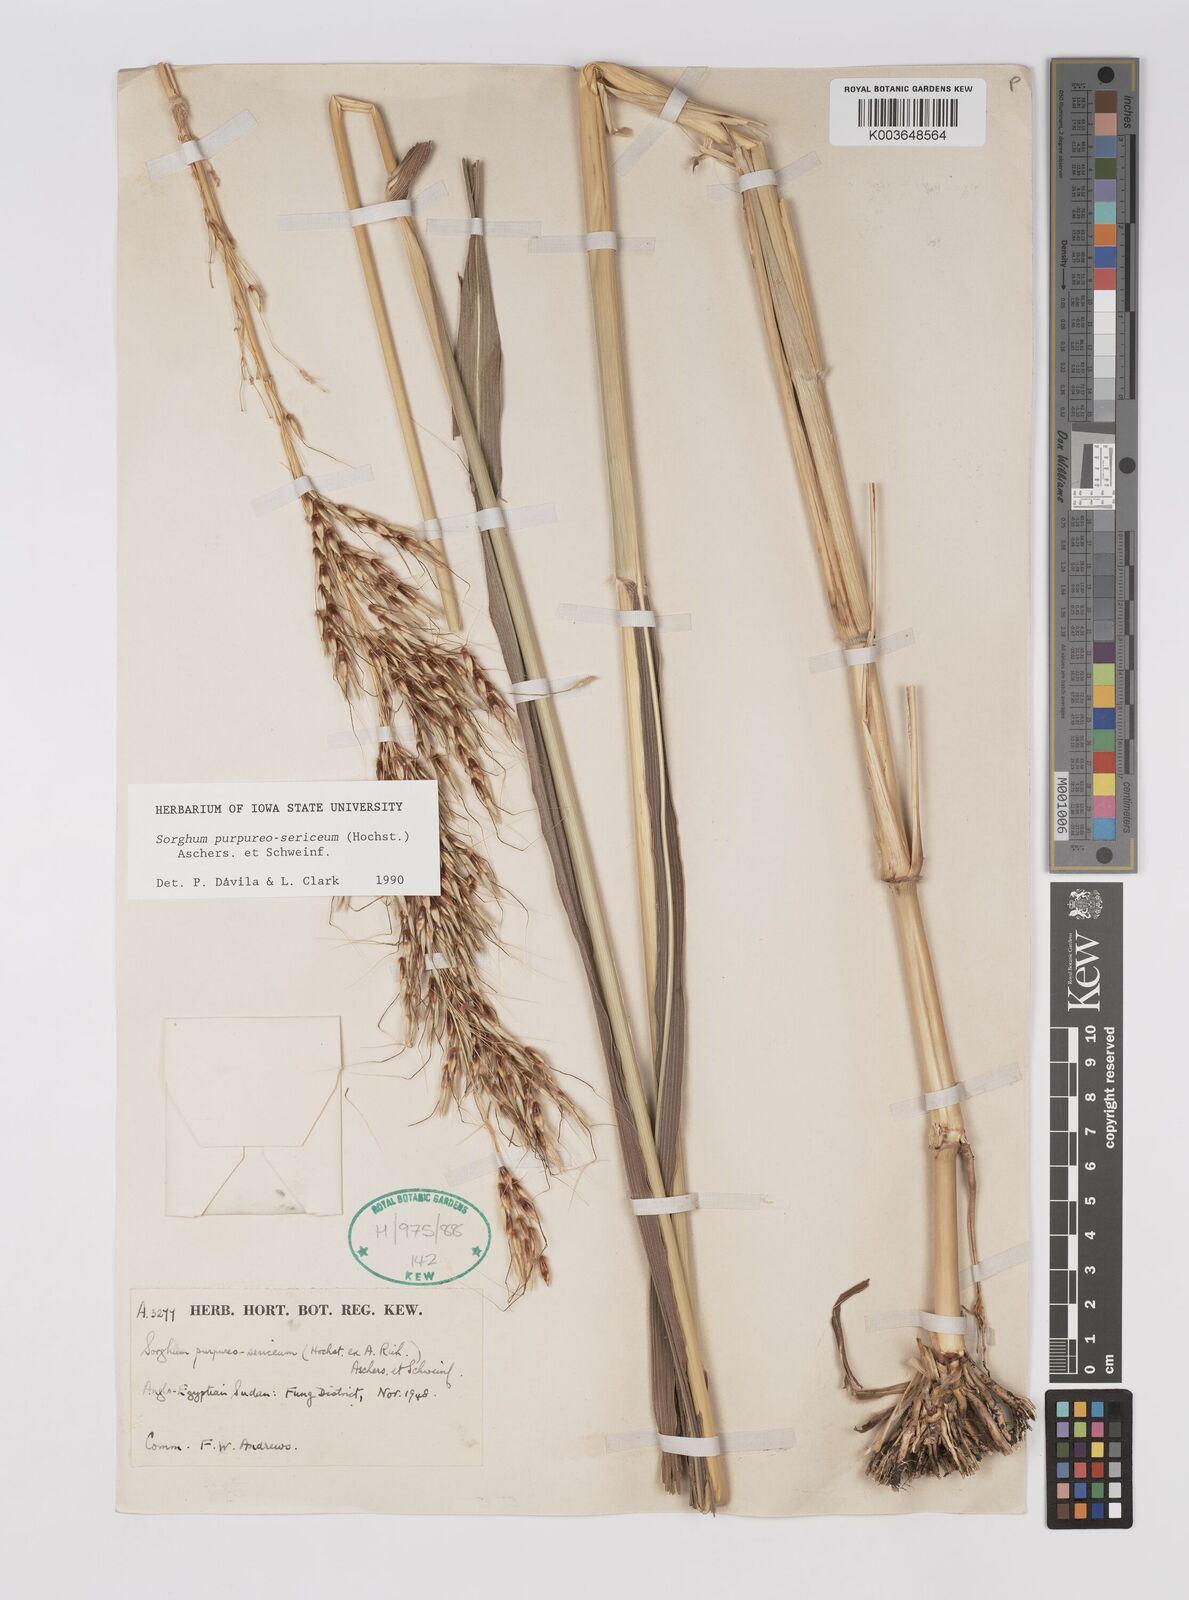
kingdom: Plantae
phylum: Tracheophyta
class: Liliopsida
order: Poales
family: Poaceae
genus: Sarga
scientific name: Sarga purpureosericea
